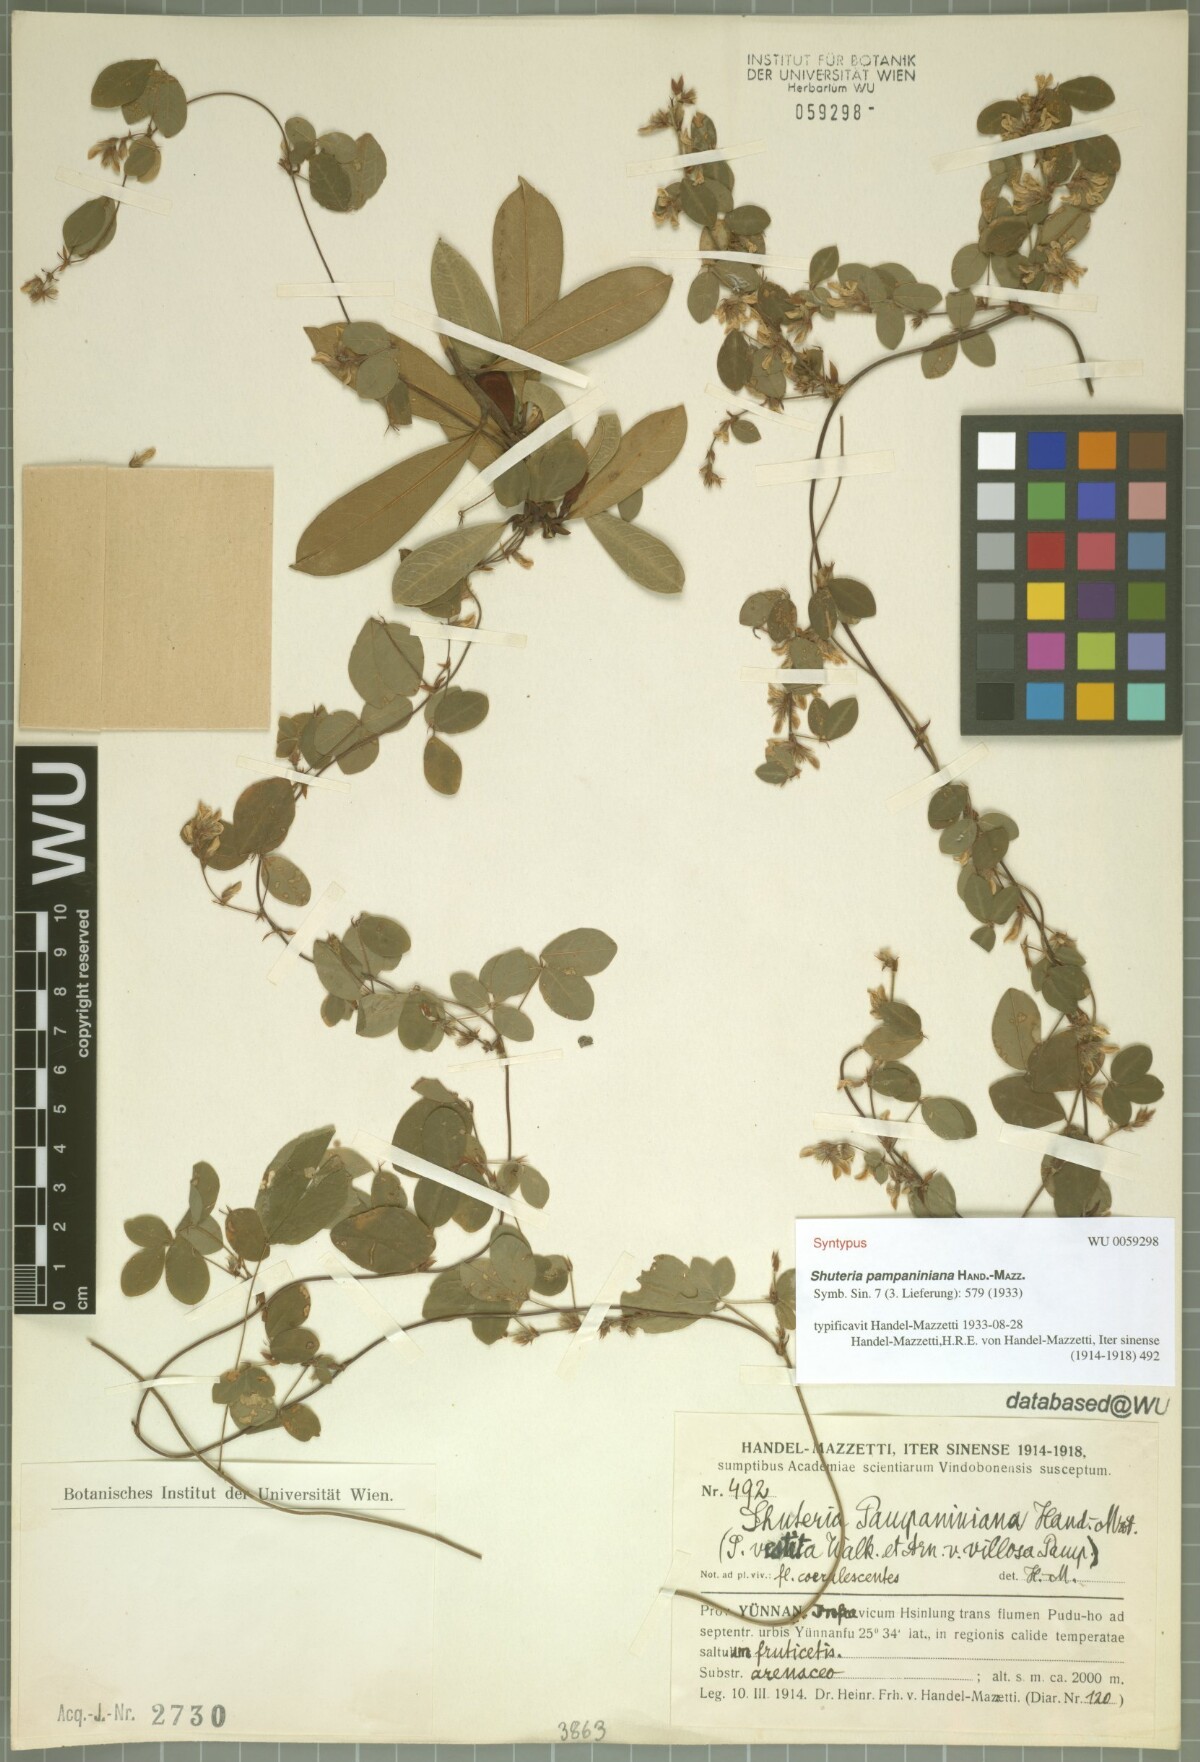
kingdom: Plantae
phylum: Tracheophyta
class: Magnoliopsida
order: Fabales
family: Fabaceae
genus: Shuteria
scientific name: Shuteria vestita
